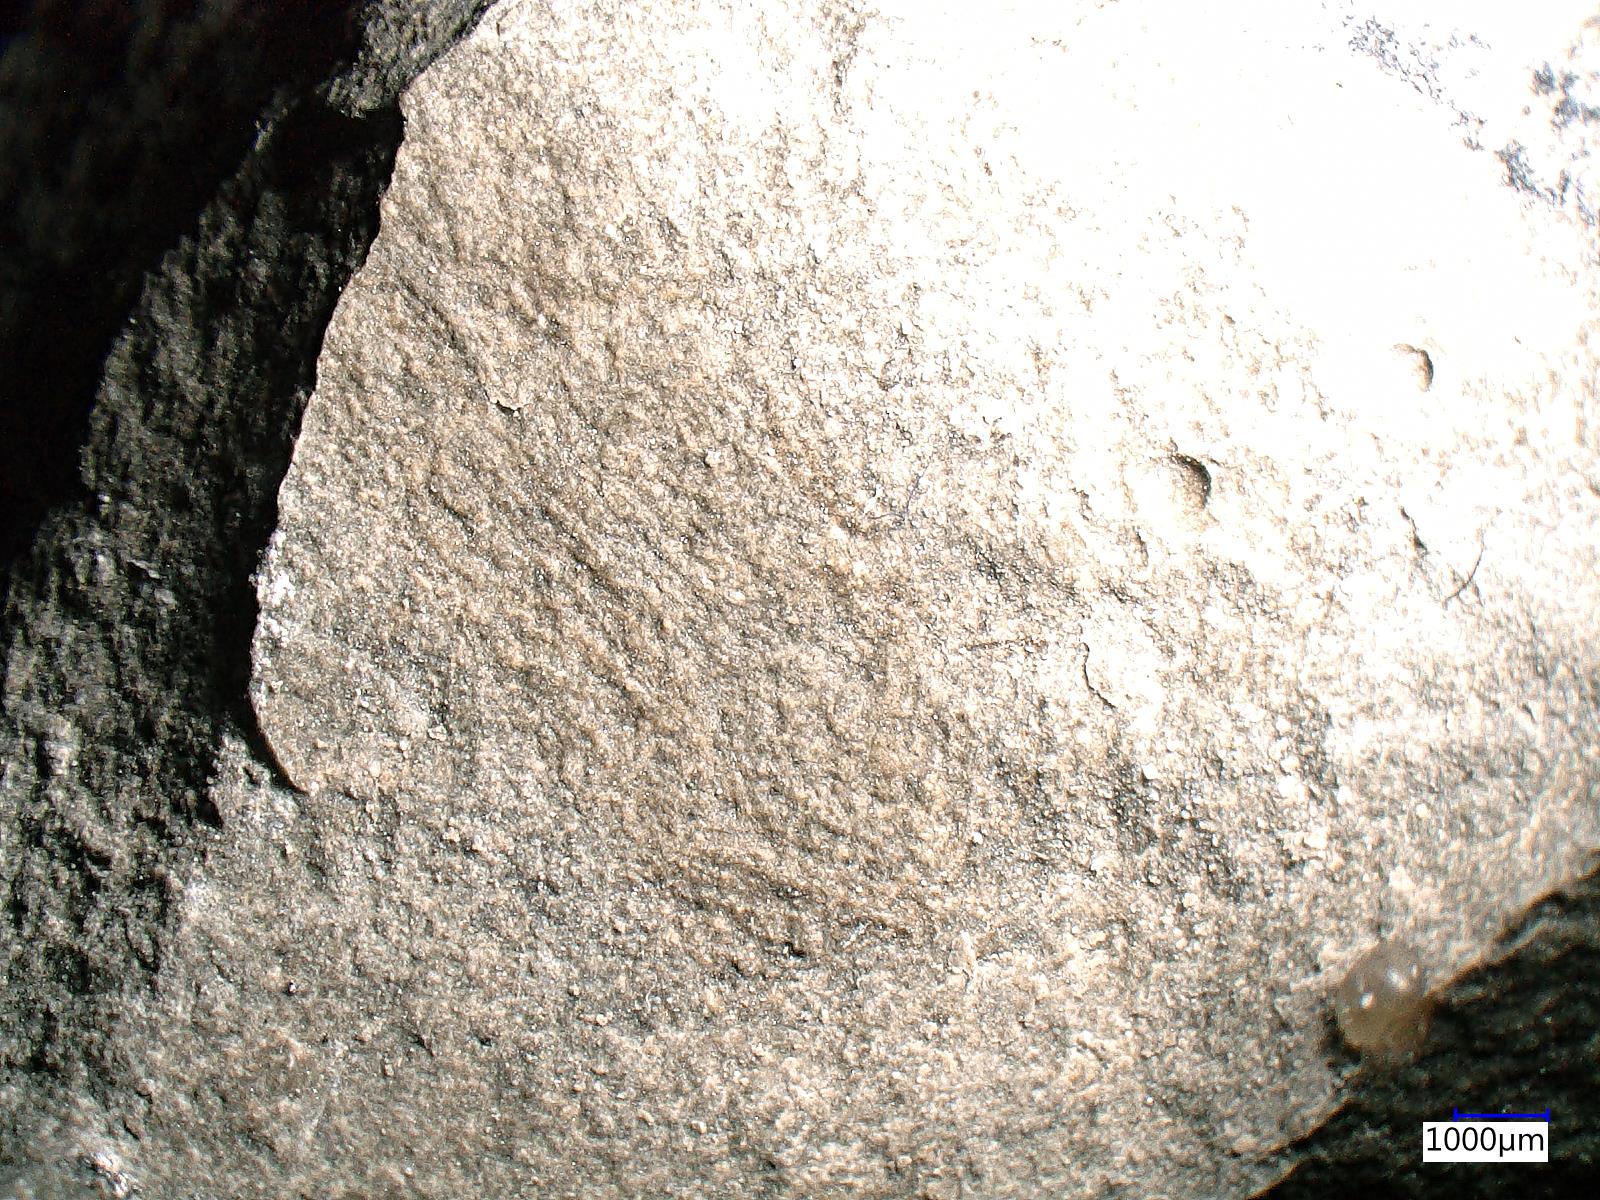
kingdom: Animalia
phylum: Arthropoda
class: Insecta
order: Orthoptera
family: Protogryllidae
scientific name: Protogryllidae
